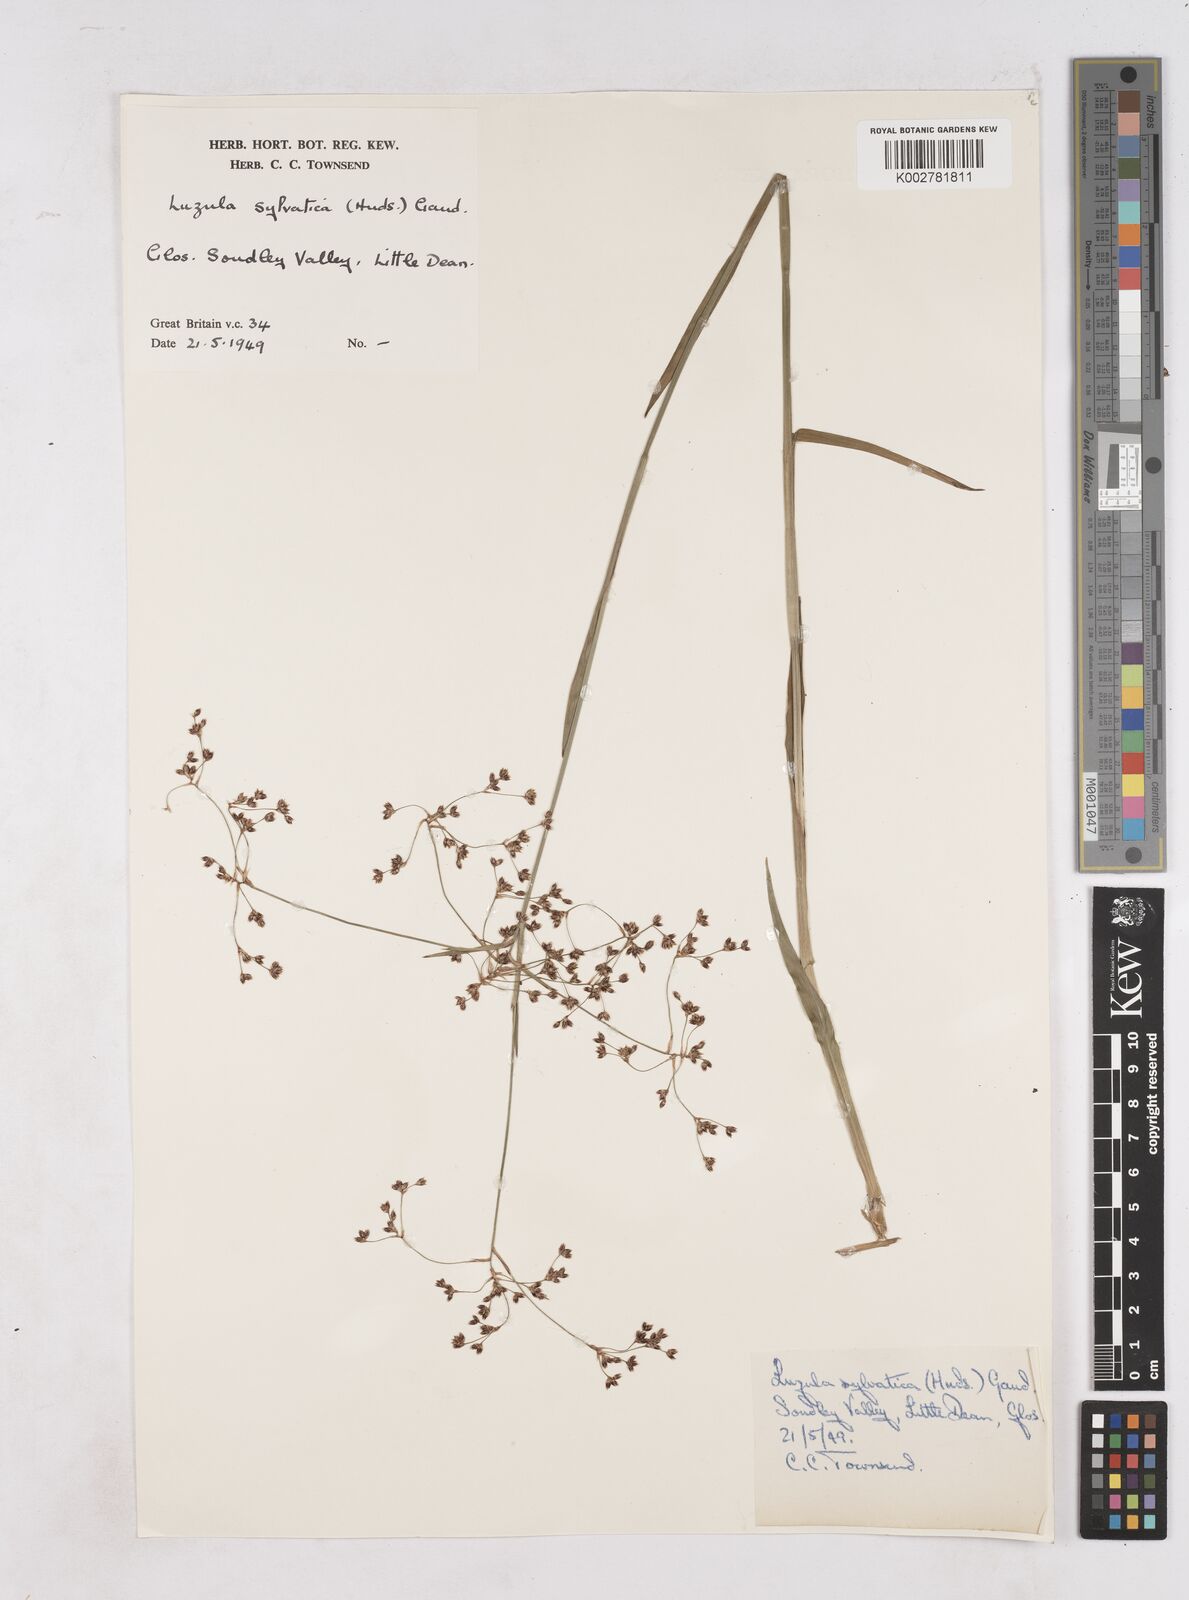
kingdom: Plantae
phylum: Tracheophyta
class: Liliopsida
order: Poales
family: Juncaceae
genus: Luzula
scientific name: Luzula sylvatica
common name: Great wood-rush
